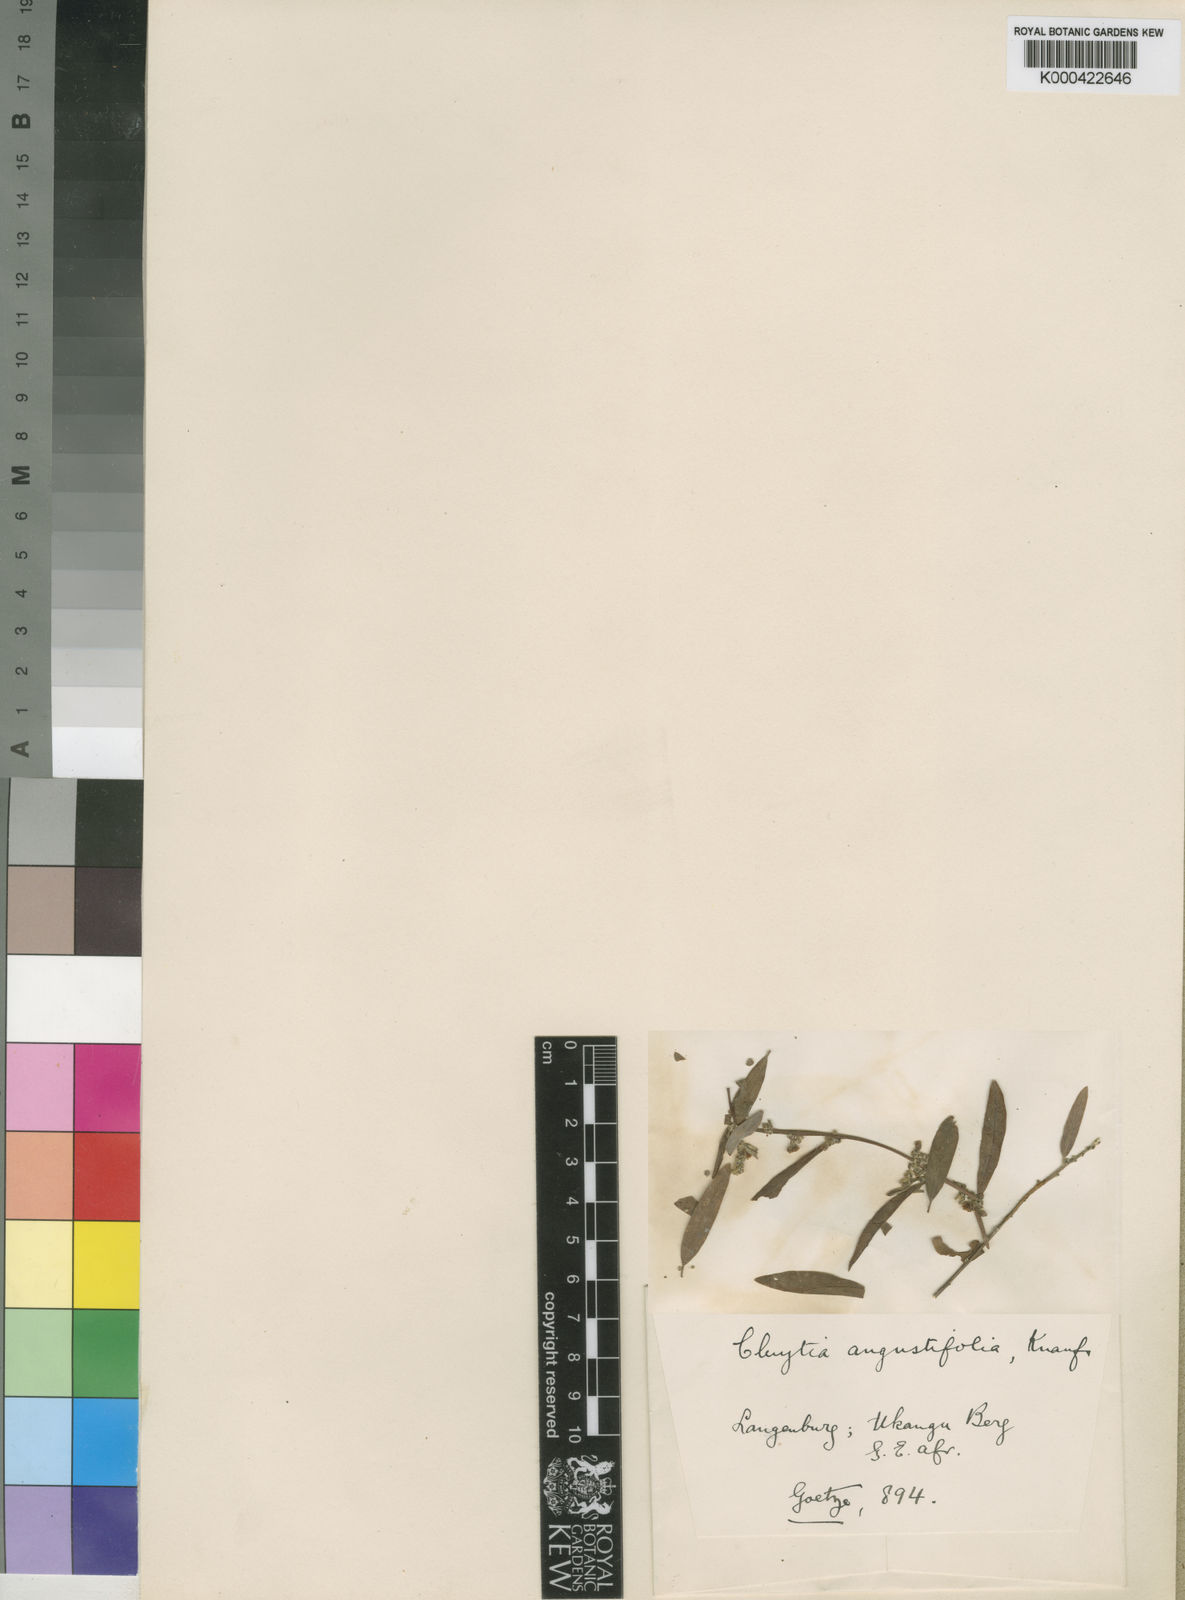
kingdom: Plantae
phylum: Tracheophyta
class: Magnoliopsida
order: Malpighiales
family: Peraceae
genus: Clutia
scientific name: Clutia angustifolia
